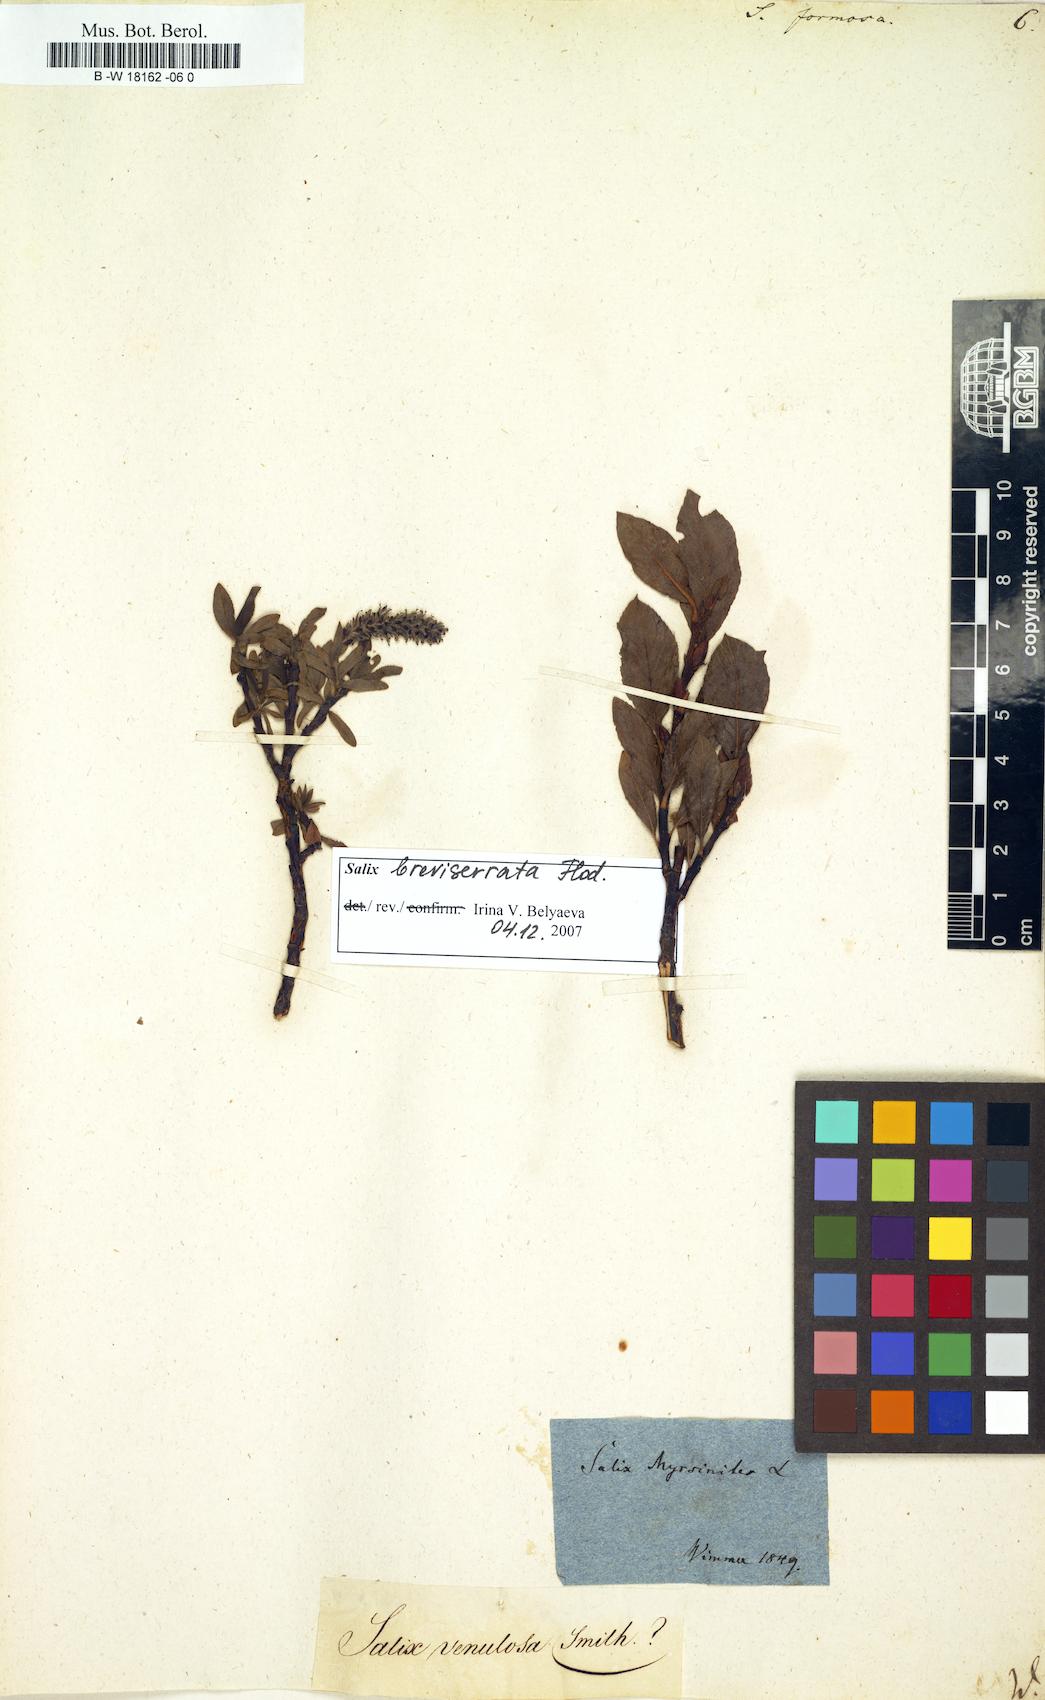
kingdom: Plantae
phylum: Tracheophyta
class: Magnoliopsida
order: Malpighiales
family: Salicaceae
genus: Salix
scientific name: Salix foetida
